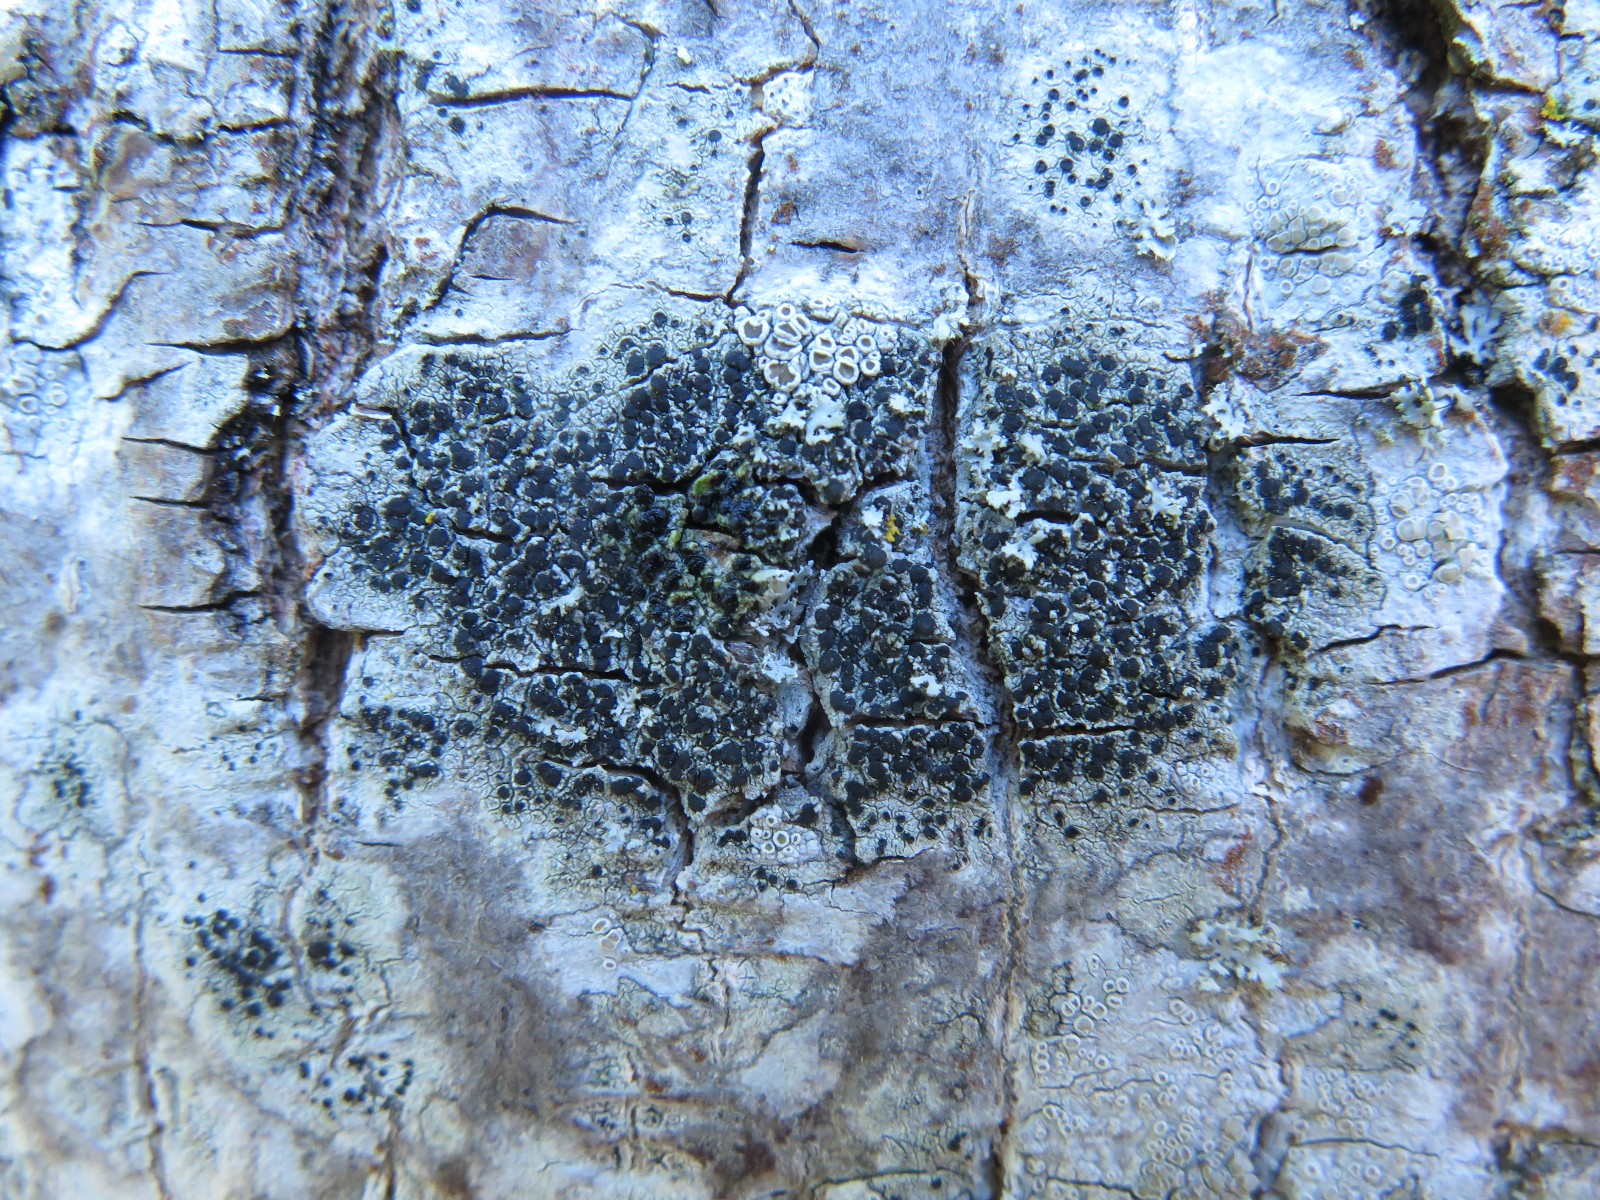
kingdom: Fungi
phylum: Ascomycota
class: Lecanoromycetes
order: Lecanorales
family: Lecanoraceae
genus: Lecidella
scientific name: Lecidella elaeochroma
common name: grågrøn skivelav
